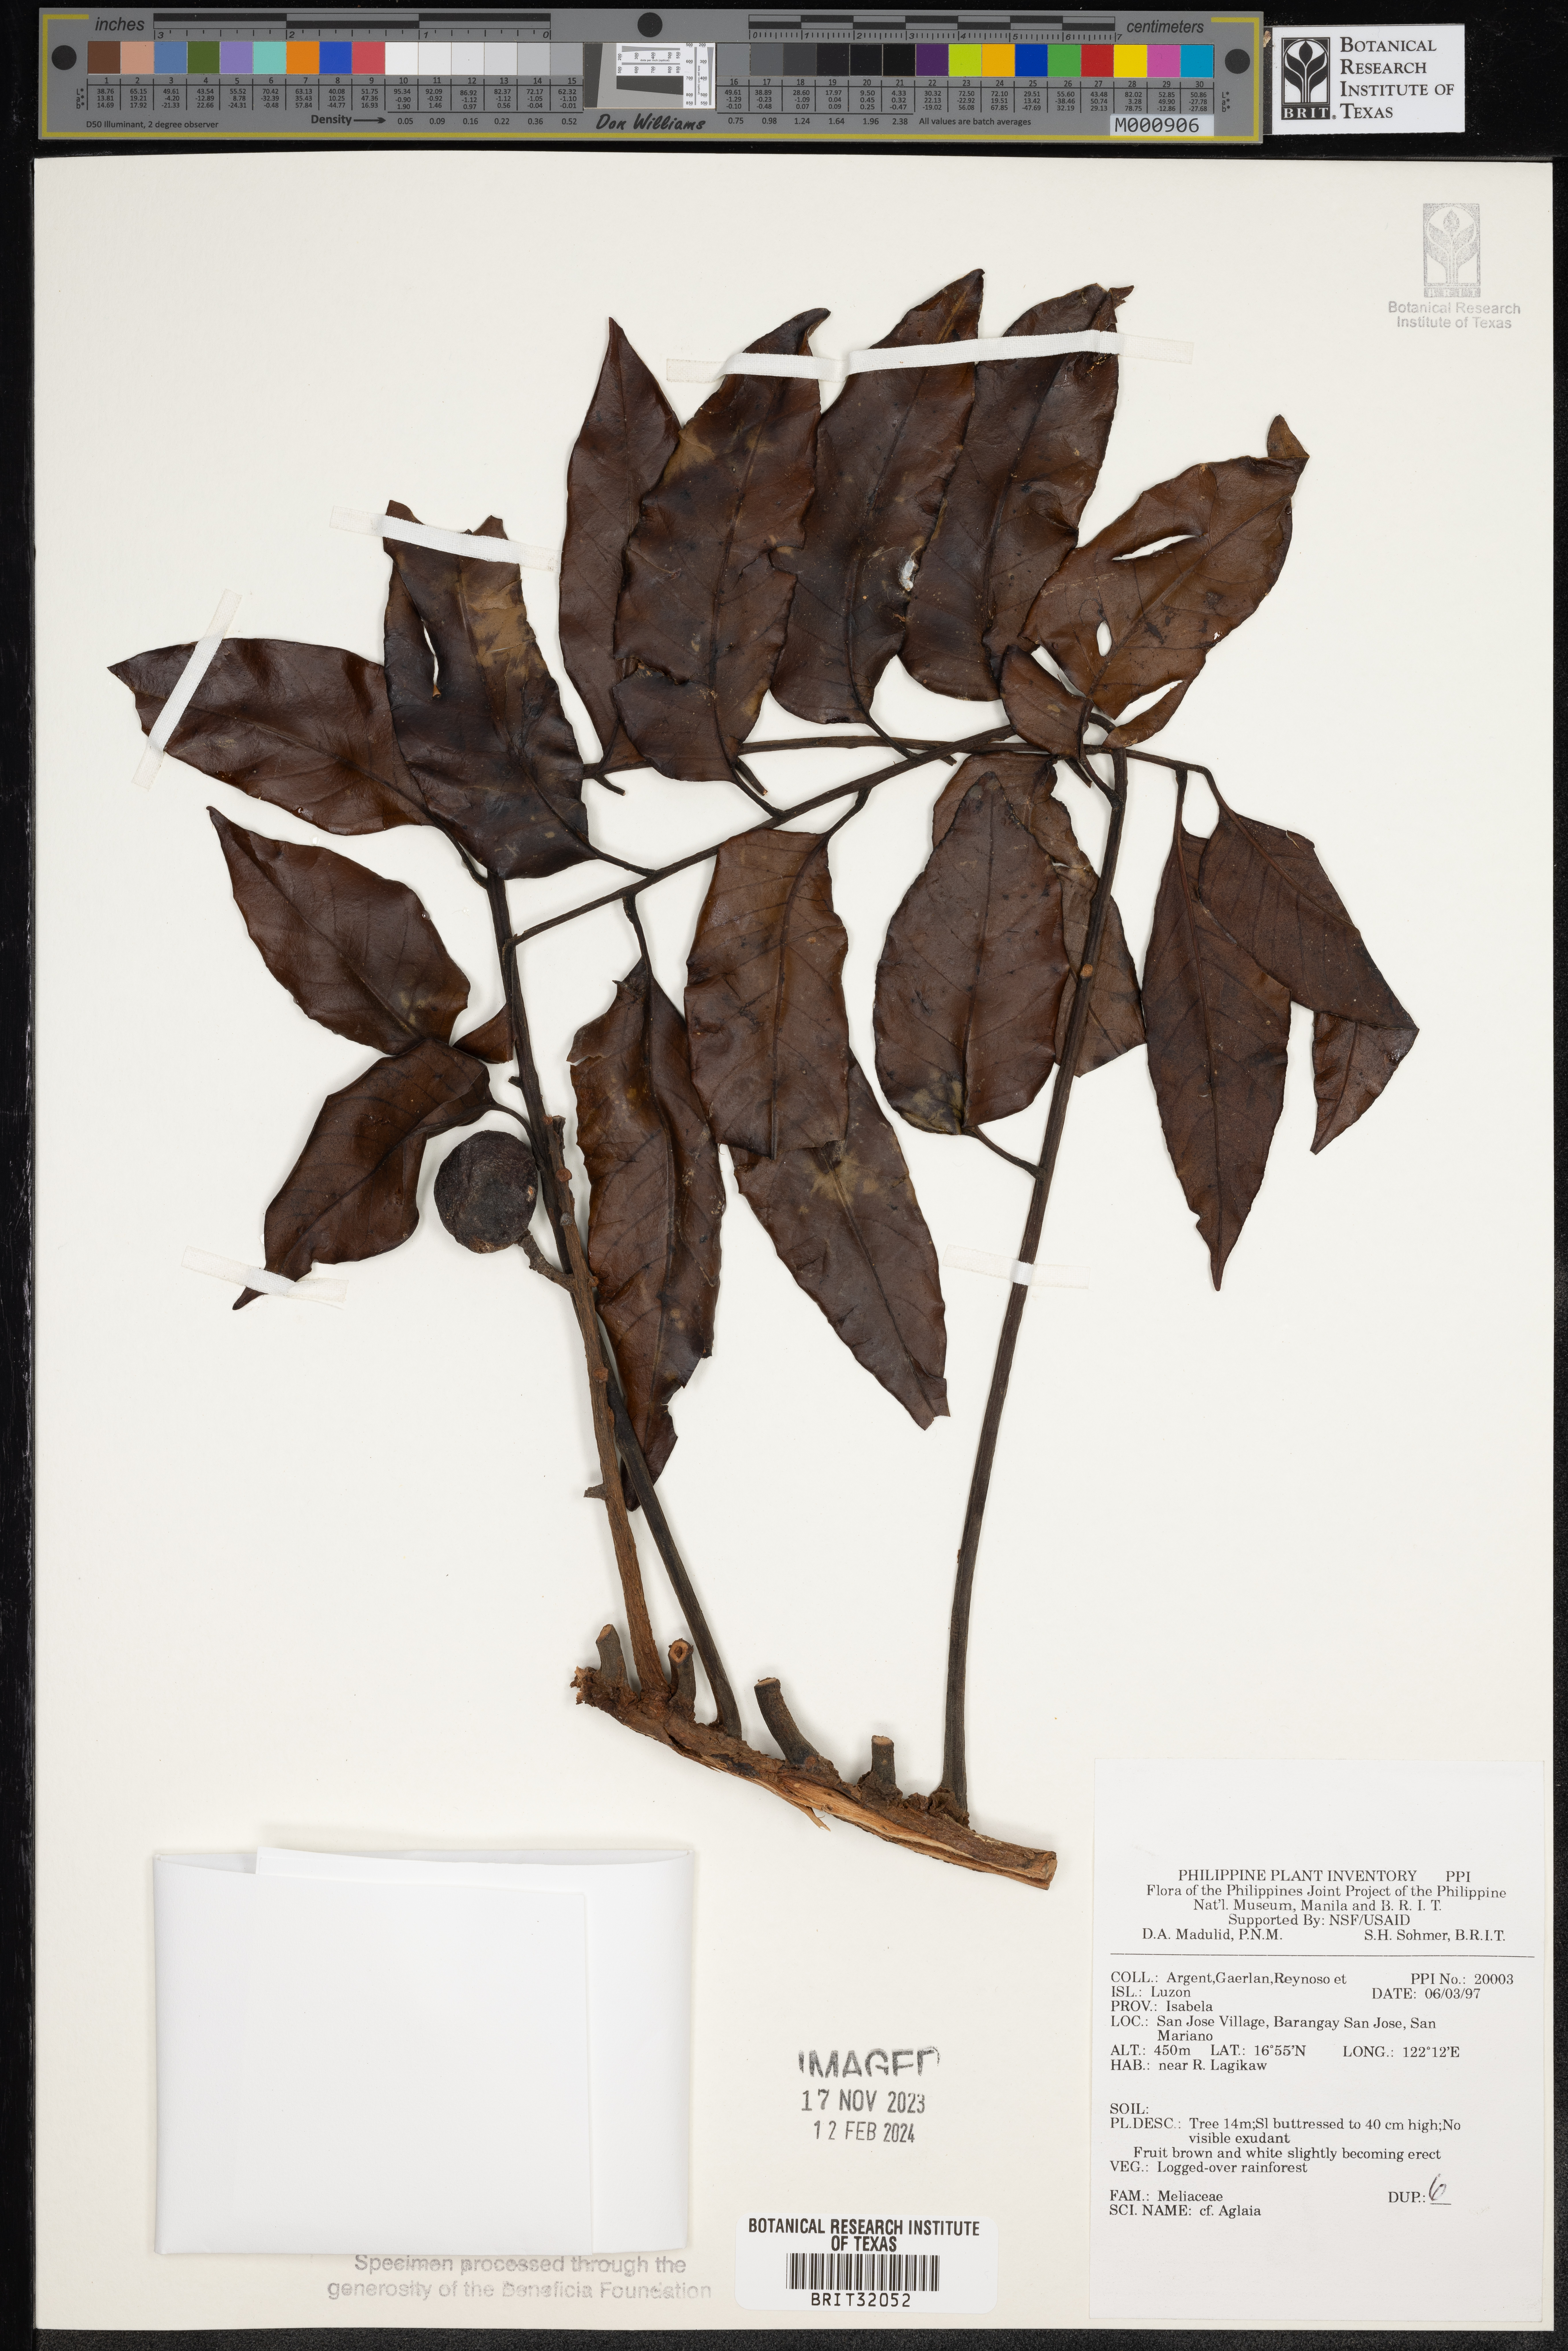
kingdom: Plantae
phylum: Tracheophyta
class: Magnoliopsida
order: Sapindales
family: Meliaceae
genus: Aglaia
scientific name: Aglaia
